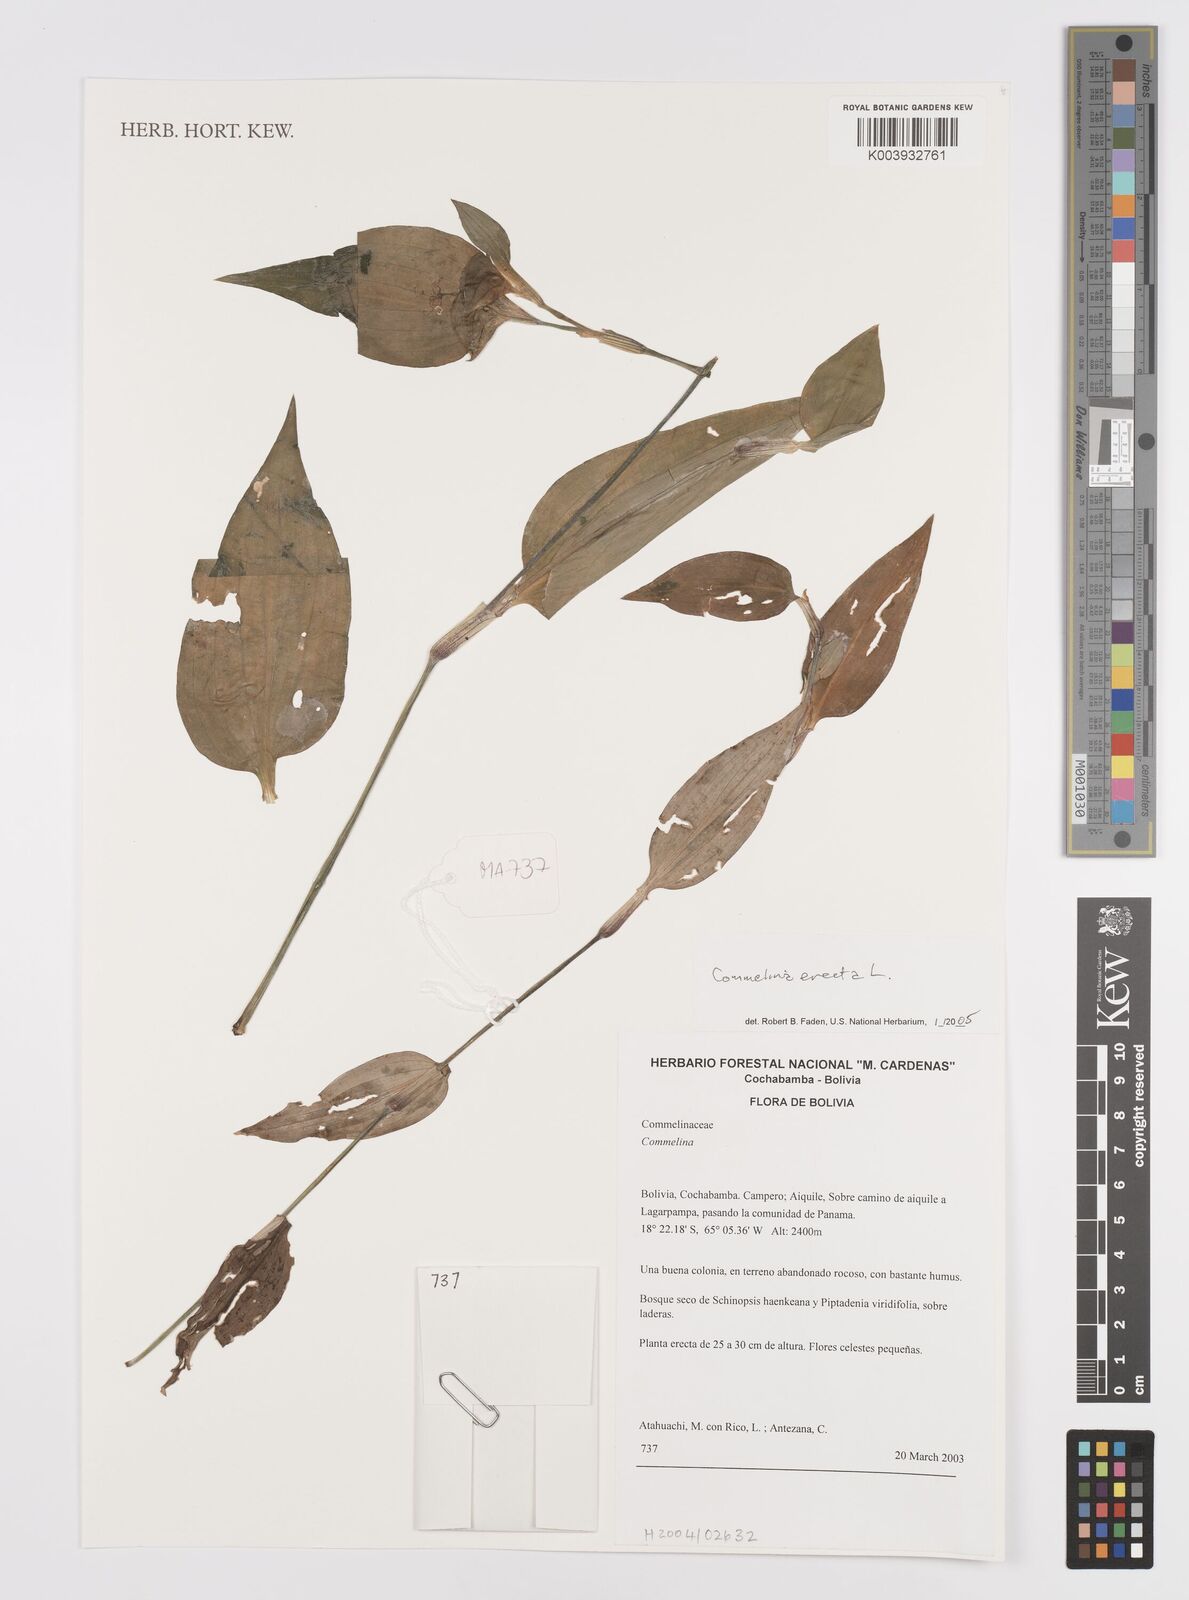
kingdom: Plantae
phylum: Tracheophyta
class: Liliopsida
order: Commelinales
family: Commelinaceae
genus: Commelina
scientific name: Commelina erecta
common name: Blousel blommetjie
